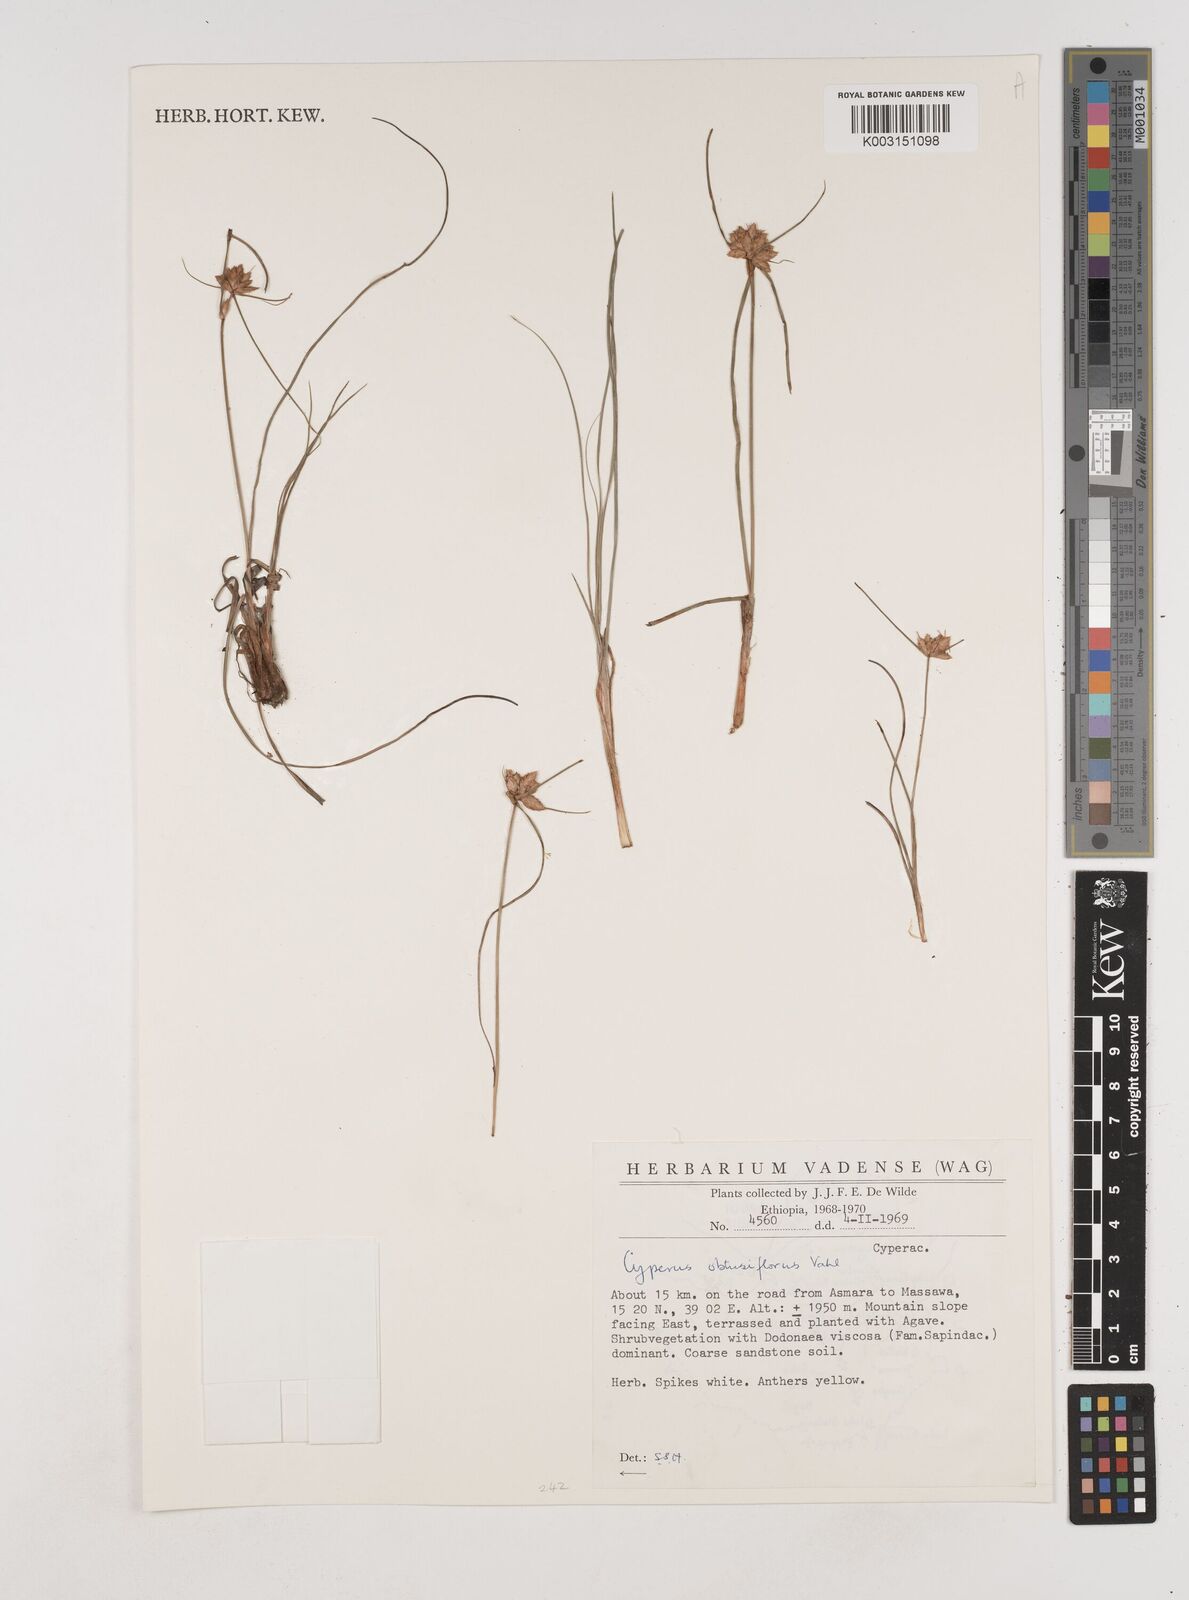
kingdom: Plantae
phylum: Tracheophyta
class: Liliopsida
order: Poales
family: Cyperaceae
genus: Cyperus
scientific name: Cyperus niveus
